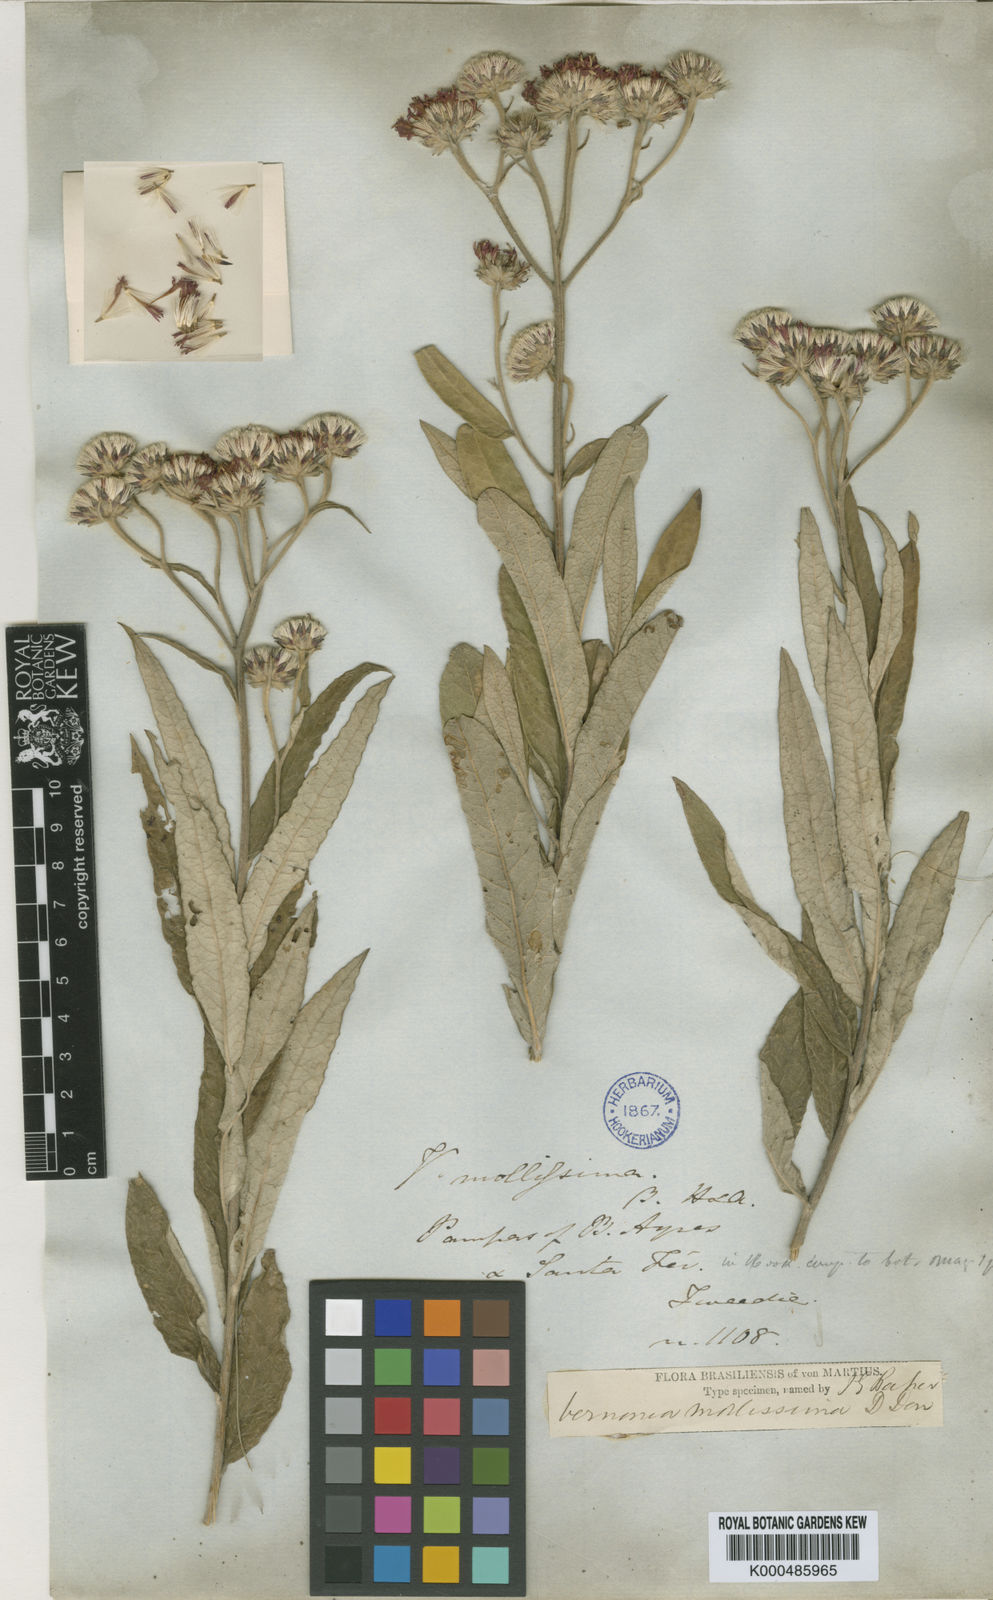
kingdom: Plantae
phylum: Tracheophyta
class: Magnoliopsida
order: Asterales
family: Asteraceae
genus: Lessingianthus
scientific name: Lessingianthus mollissimus
